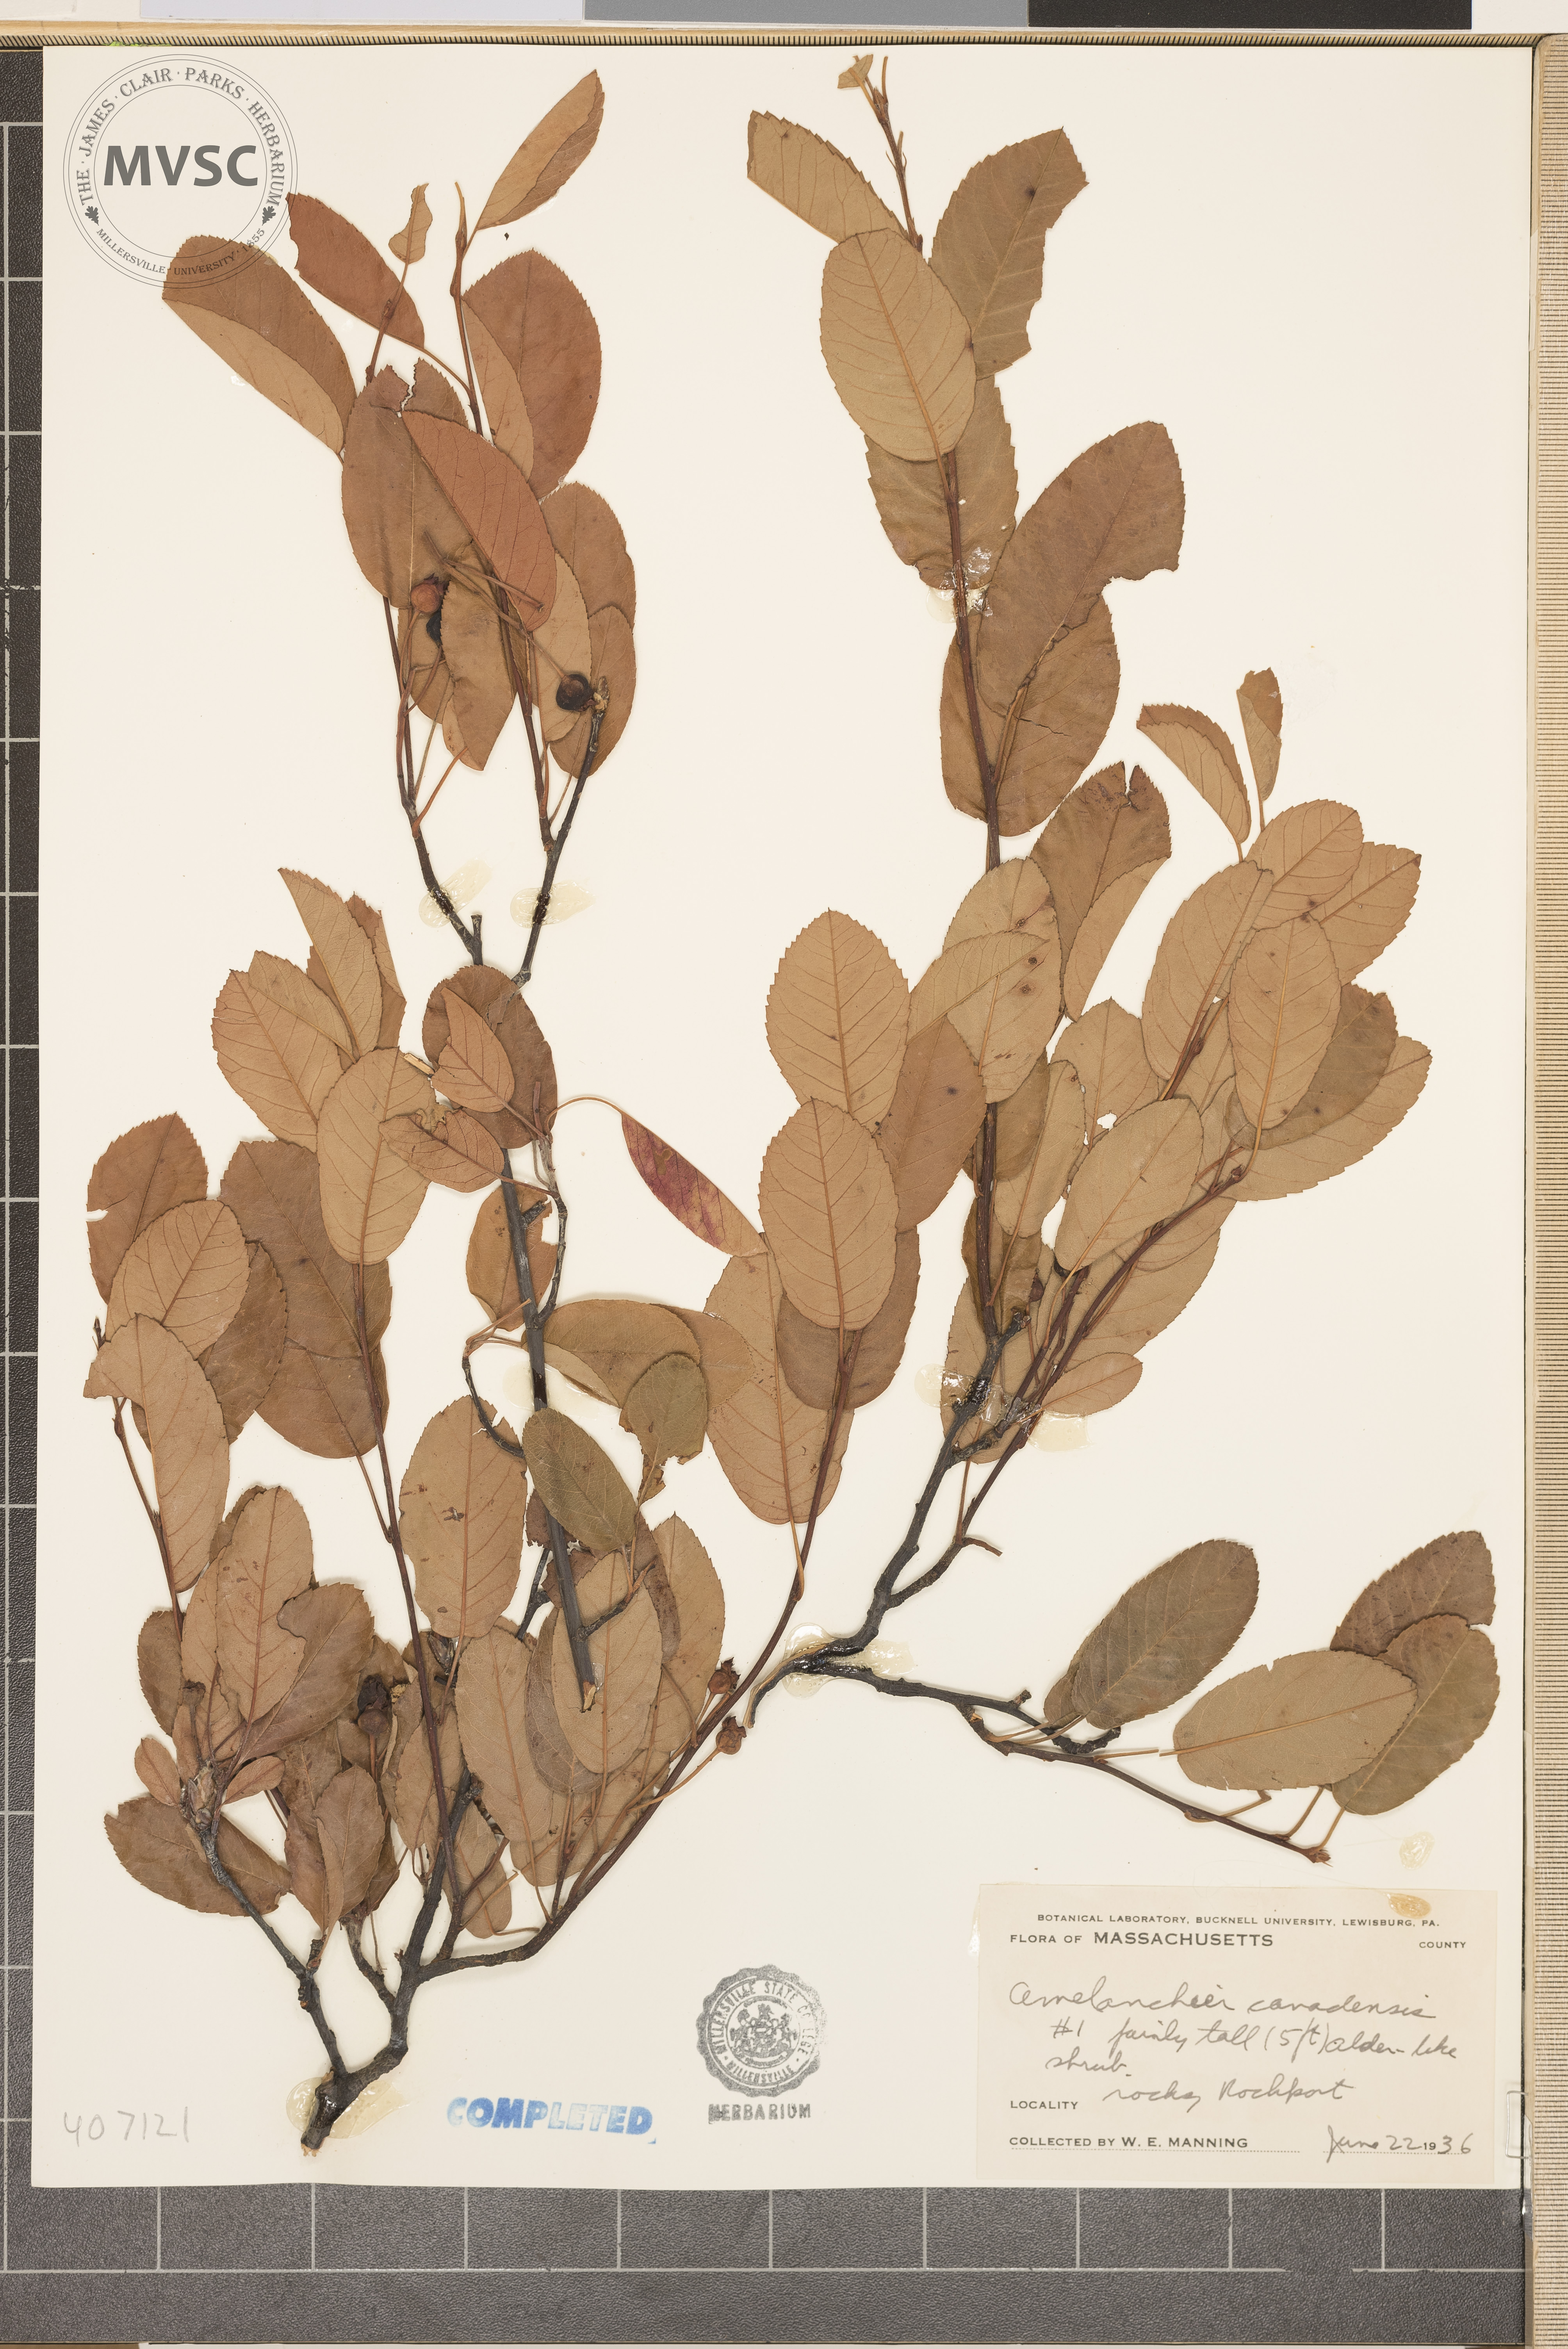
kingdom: Plantae
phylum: Tracheophyta
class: Magnoliopsida
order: Rosales
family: Rosaceae
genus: Amelanchier
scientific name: Amelanchier canadensis
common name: Thicket serviceberry
